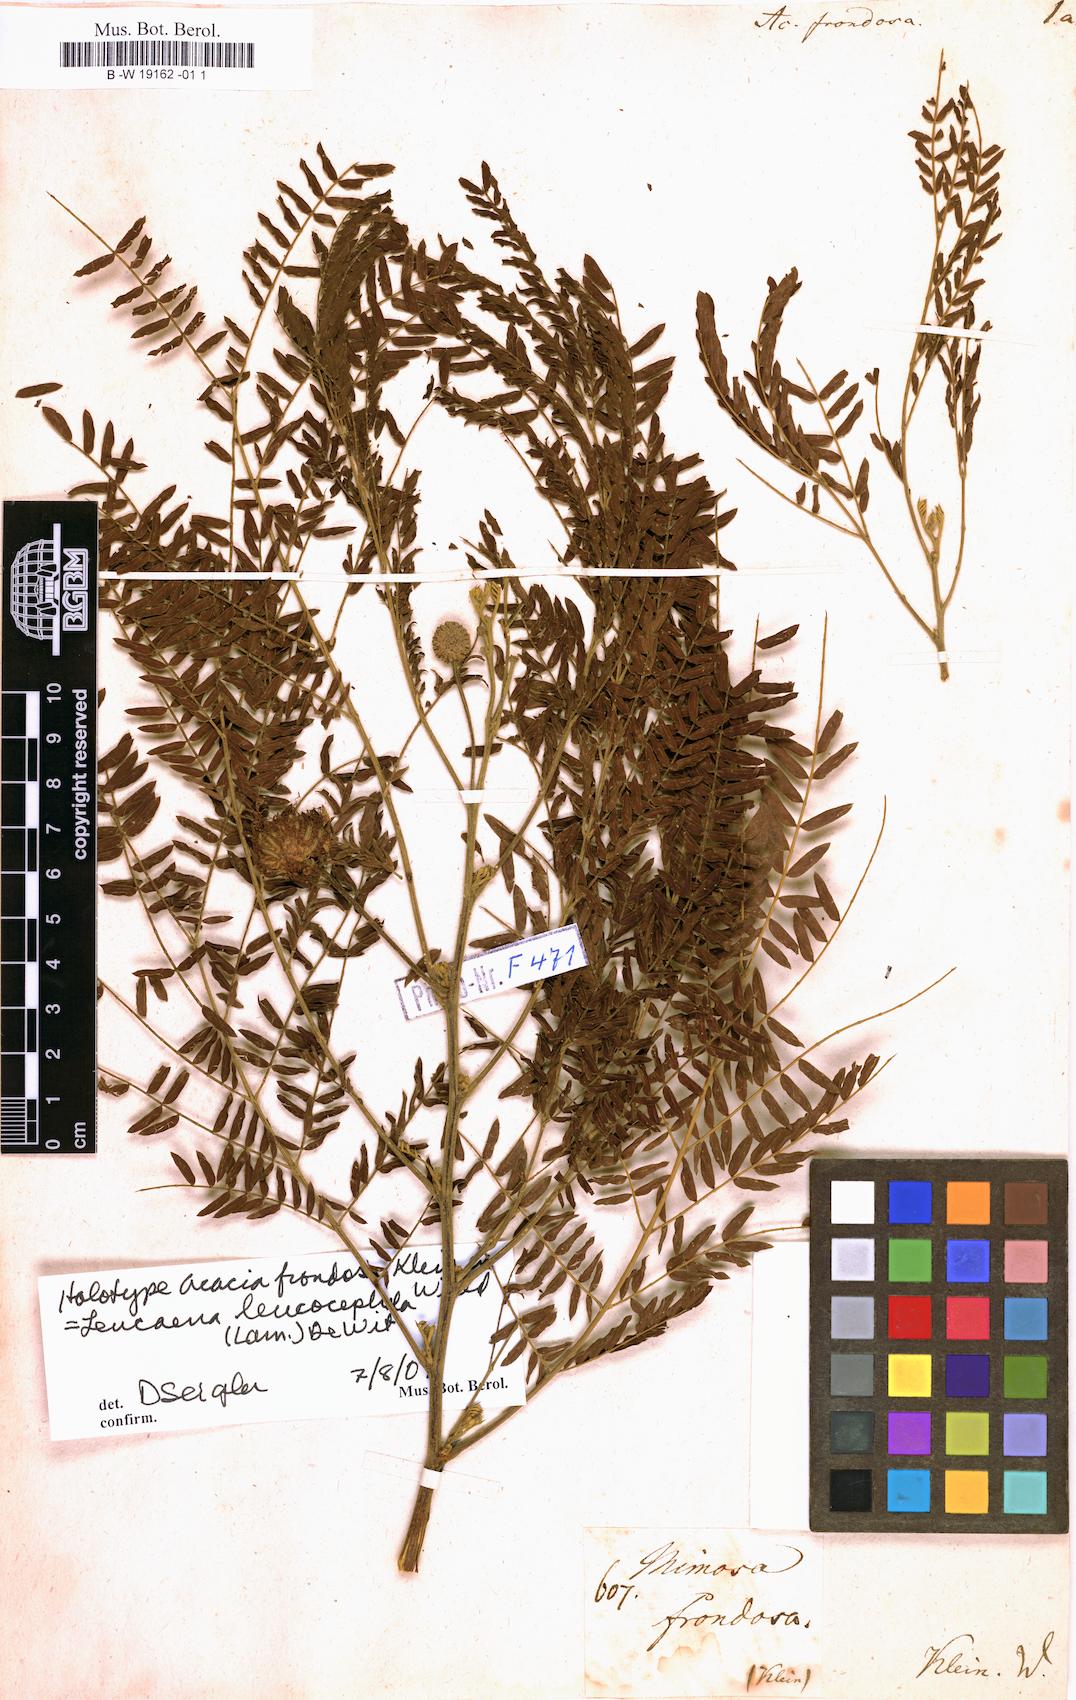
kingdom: Plantae
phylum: Tracheophyta
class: Magnoliopsida
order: Fabales
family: Fabaceae
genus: Leucaena
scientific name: Leucaena leucocephala
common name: White leadtree
